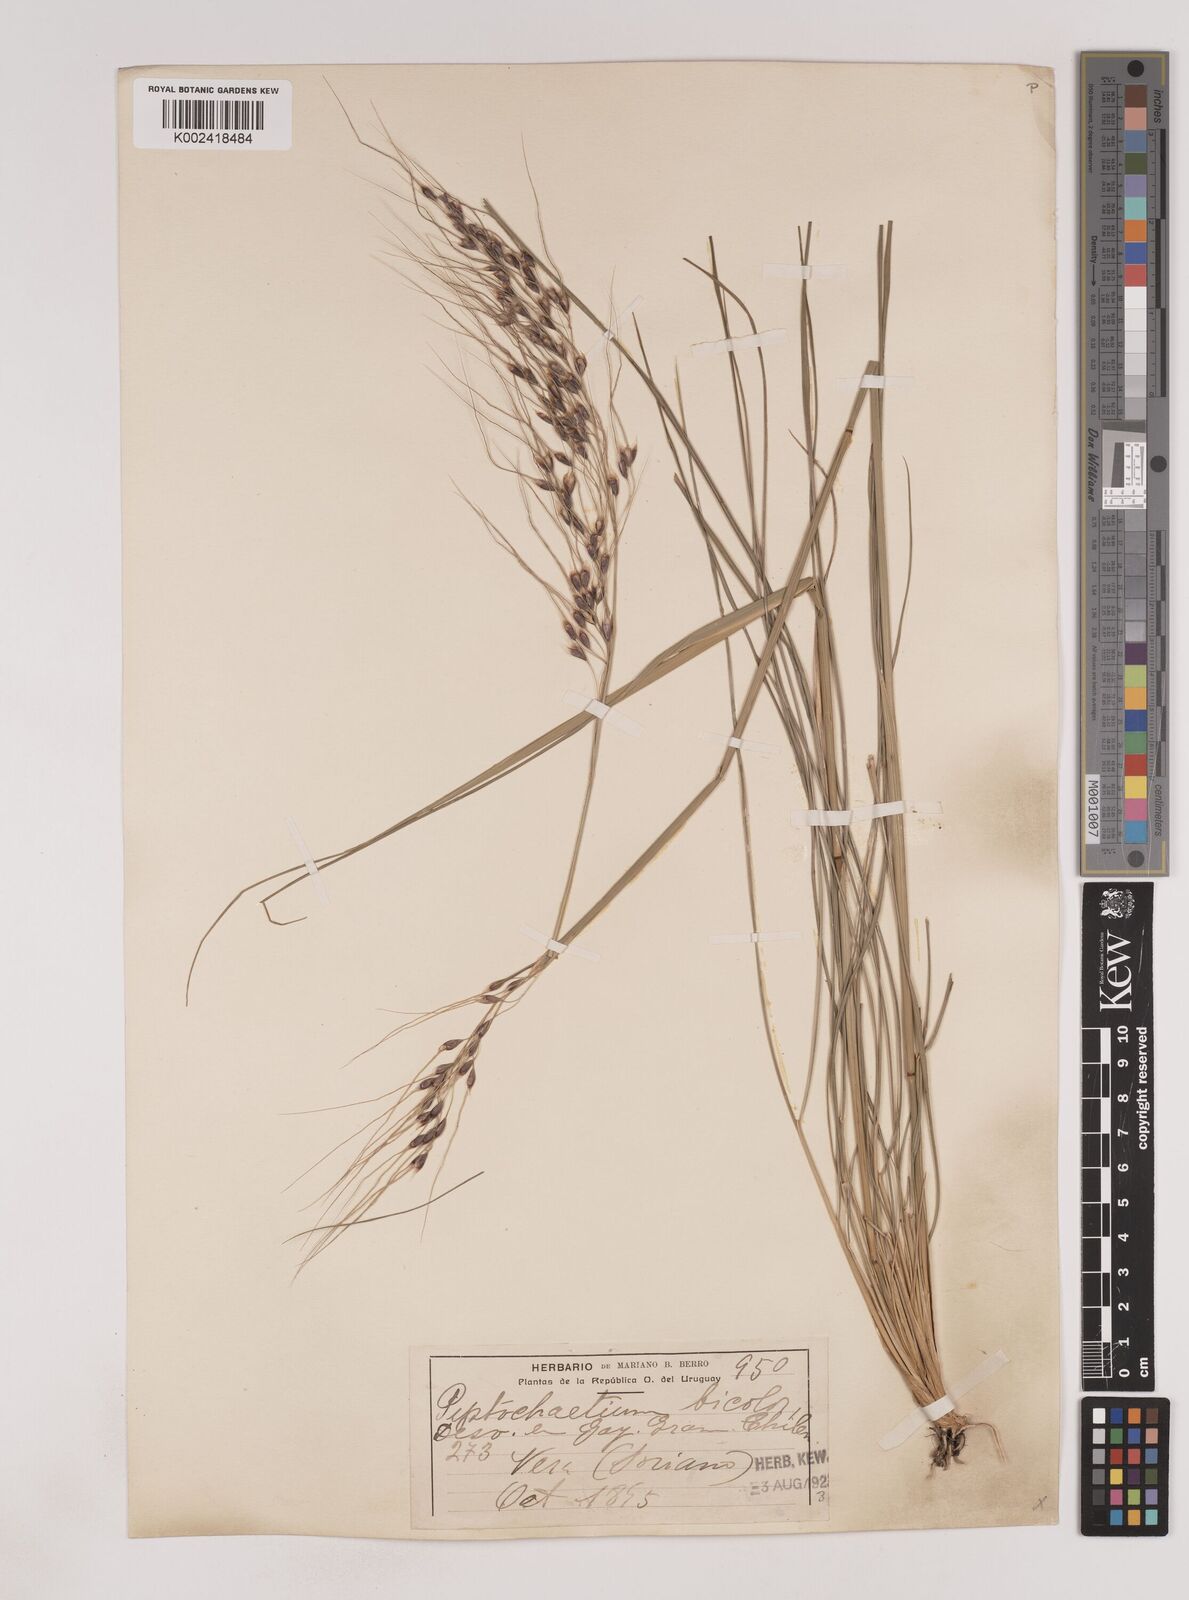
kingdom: Plantae
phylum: Tracheophyta
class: Liliopsida
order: Poales
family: Poaceae
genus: Piptochaetium
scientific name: Piptochaetium bicolor
